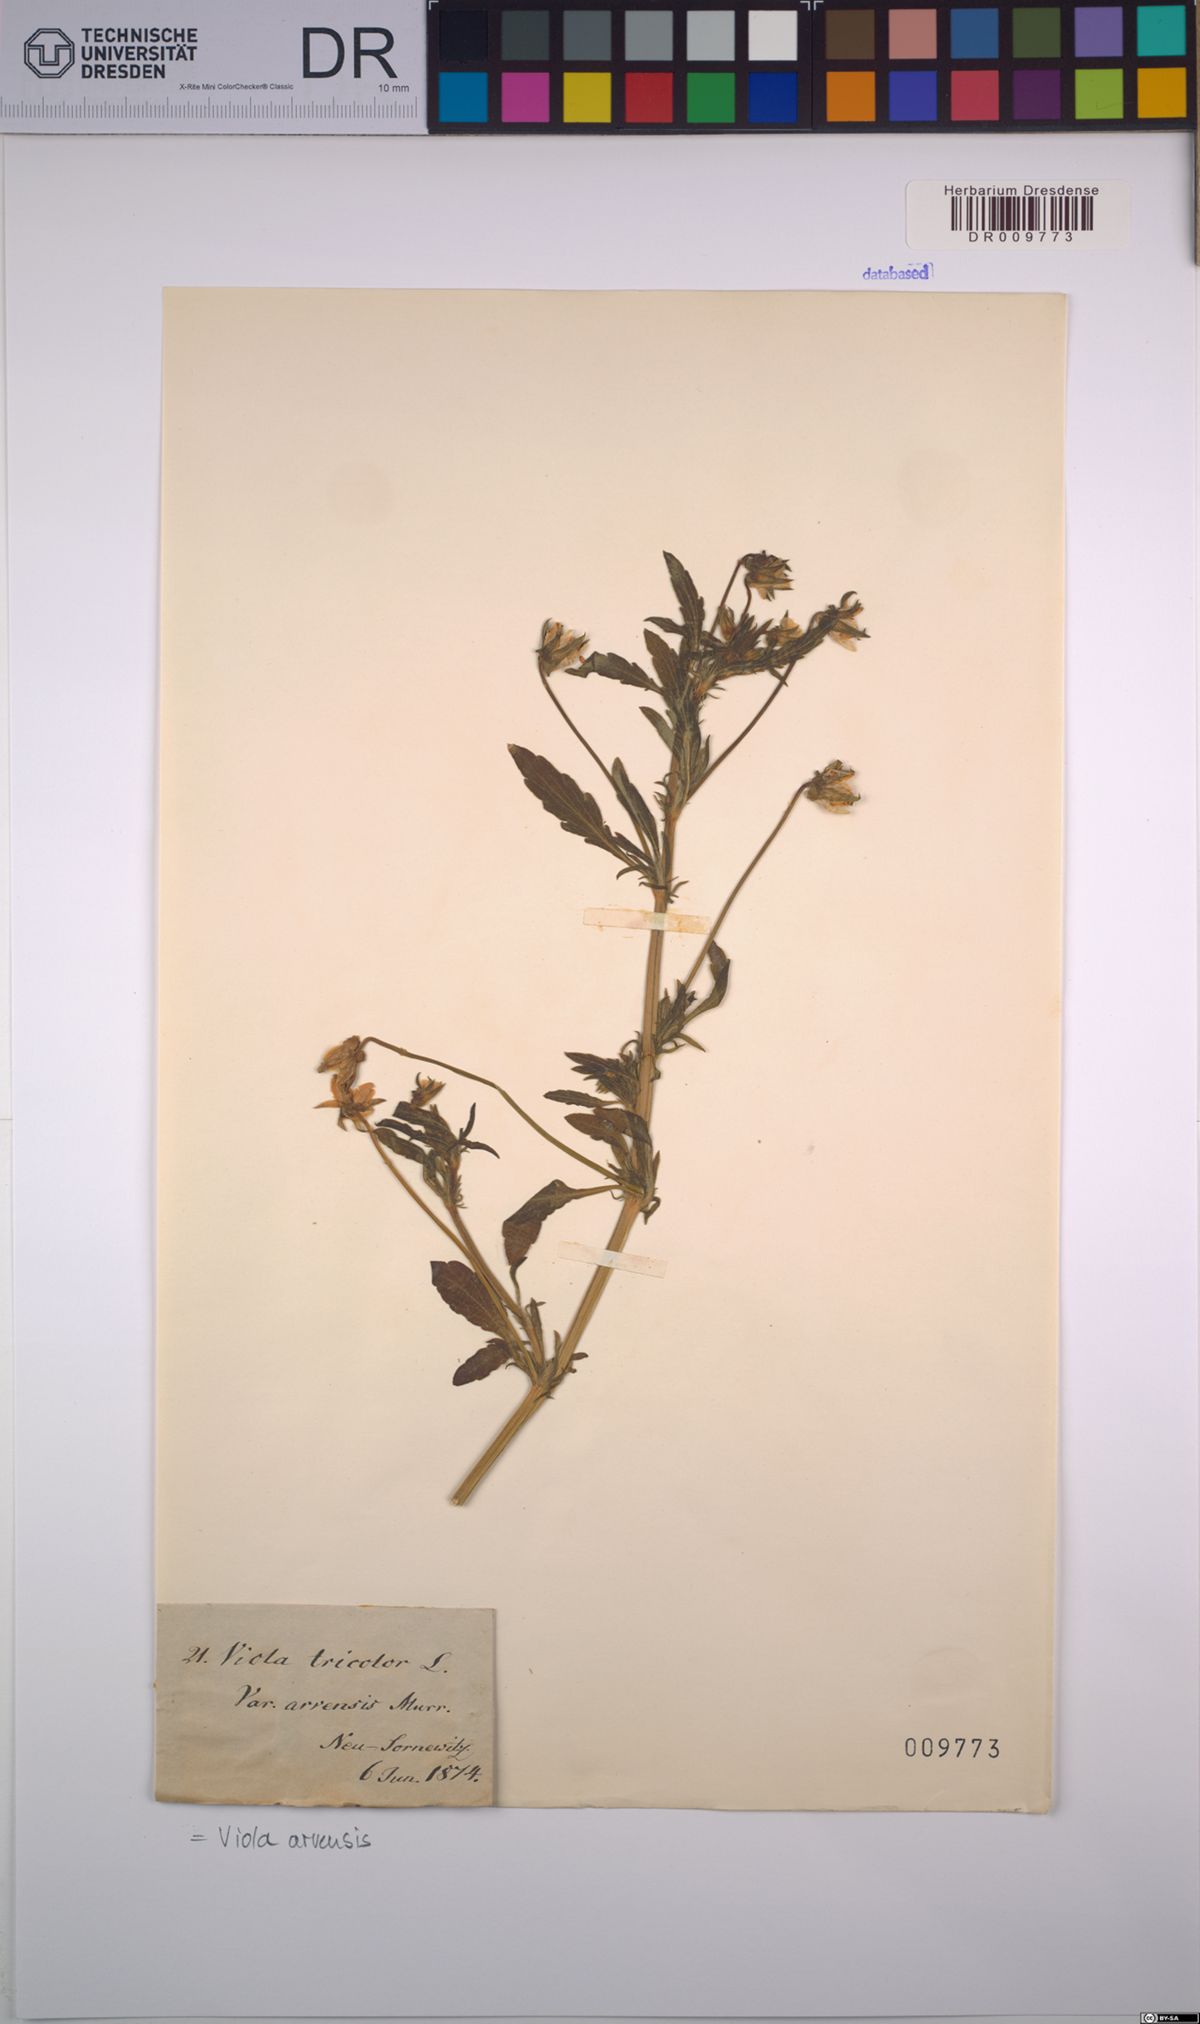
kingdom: Plantae
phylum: Tracheophyta
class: Magnoliopsida
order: Malpighiales
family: Violaceae
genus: Viola
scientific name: Viola arvensis
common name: Field pansy
